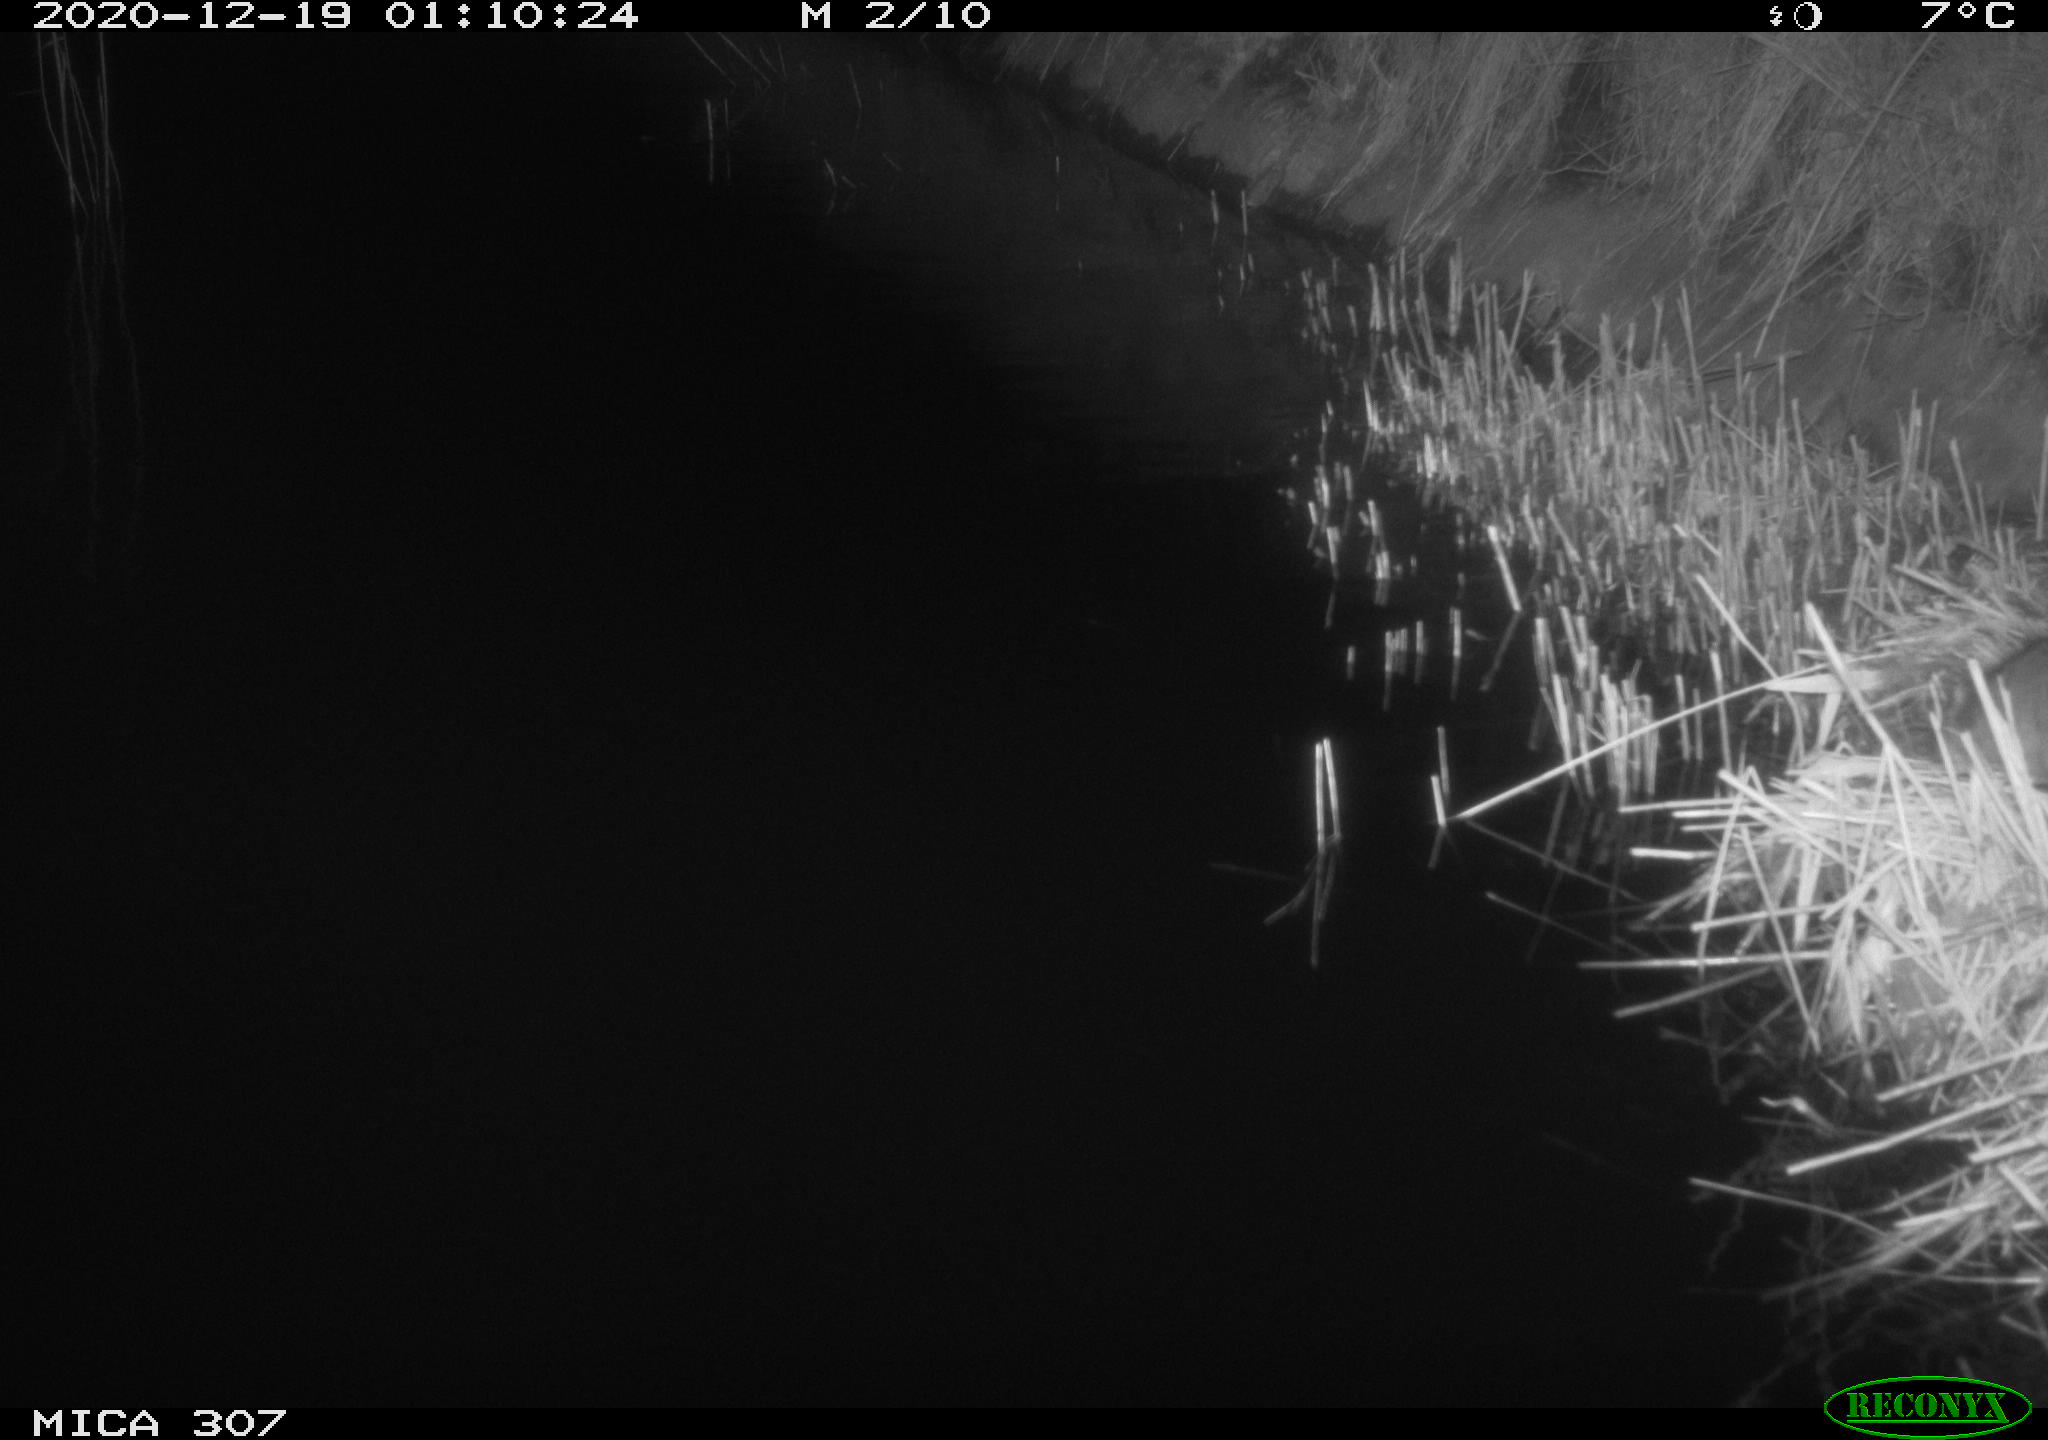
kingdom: Animalia
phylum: Chordata
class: Mammalia
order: Rodentia
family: Muridae
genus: Rattus
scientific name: Rattus norvegicus
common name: Brown rat
